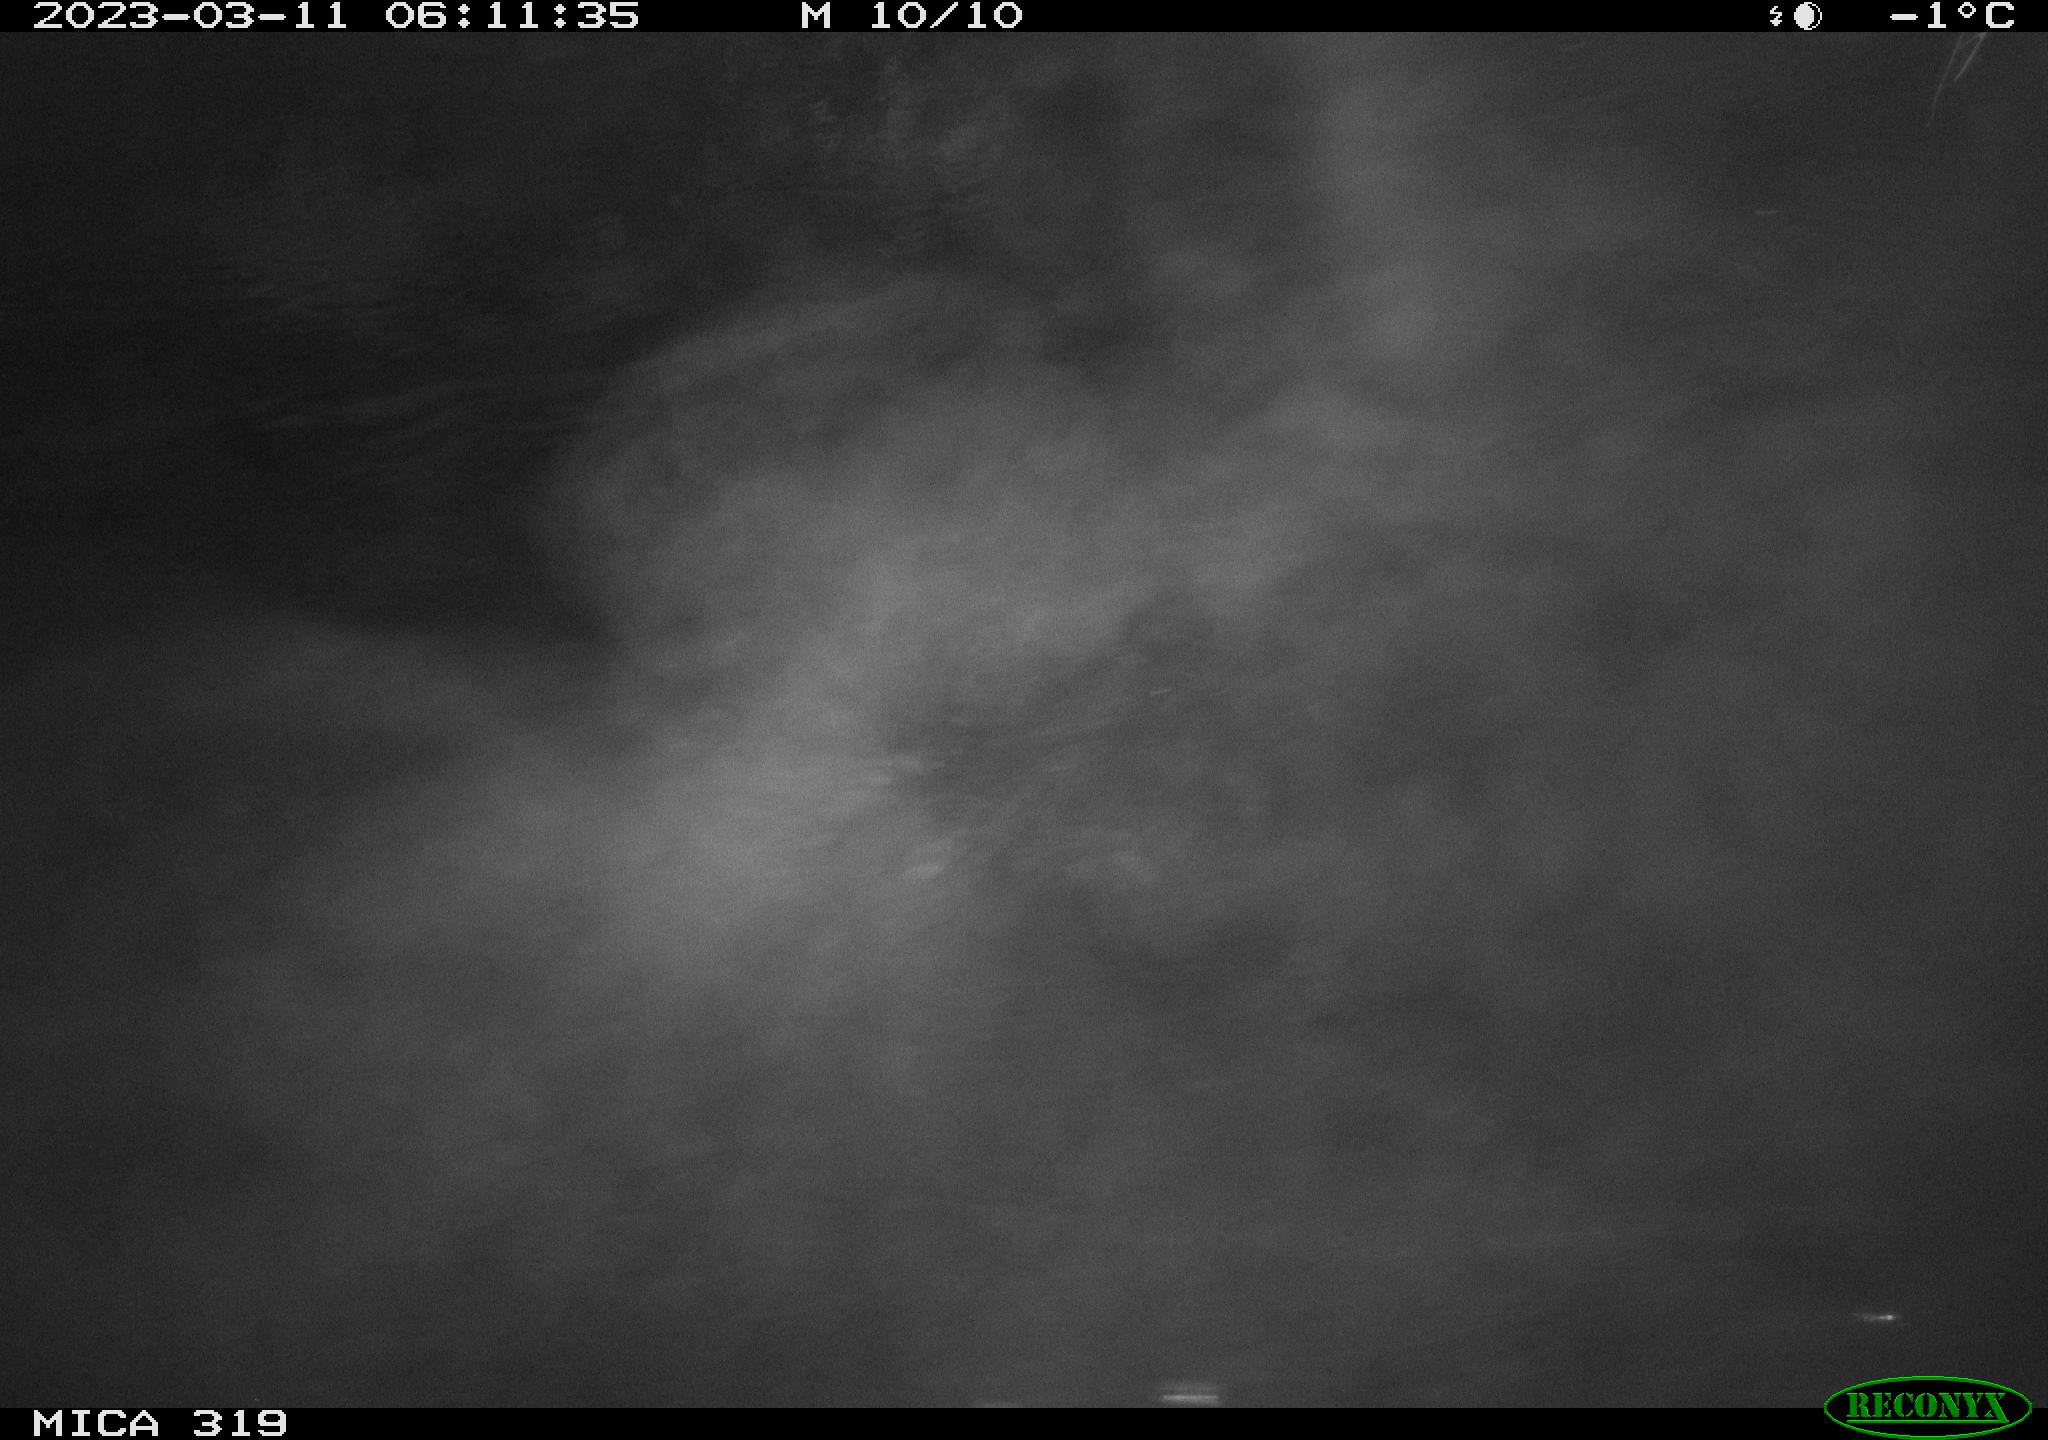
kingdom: Animalia
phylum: Chordata
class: Aves
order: Anseriformes
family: Anatidae
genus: Anas
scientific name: Anas
